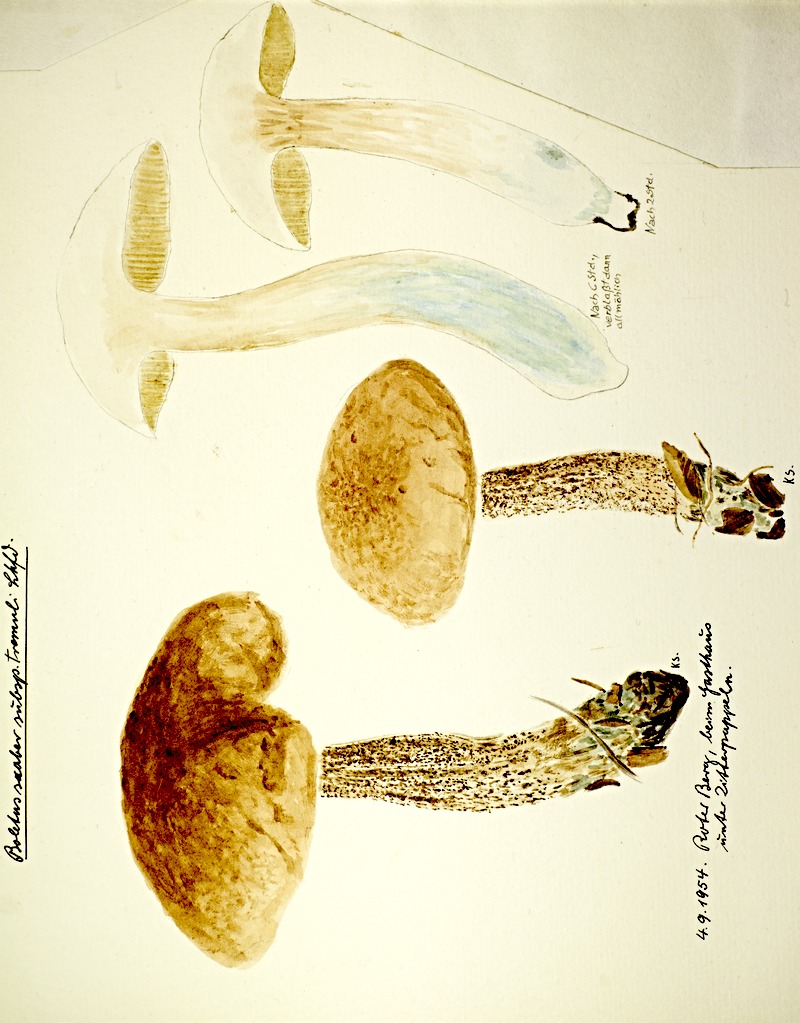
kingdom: Plantae
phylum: Tracheophyta
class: Magnoliopsida
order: Malpighiales
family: Salicaceae
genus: Populus
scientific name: Populus tremula
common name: European aspen
